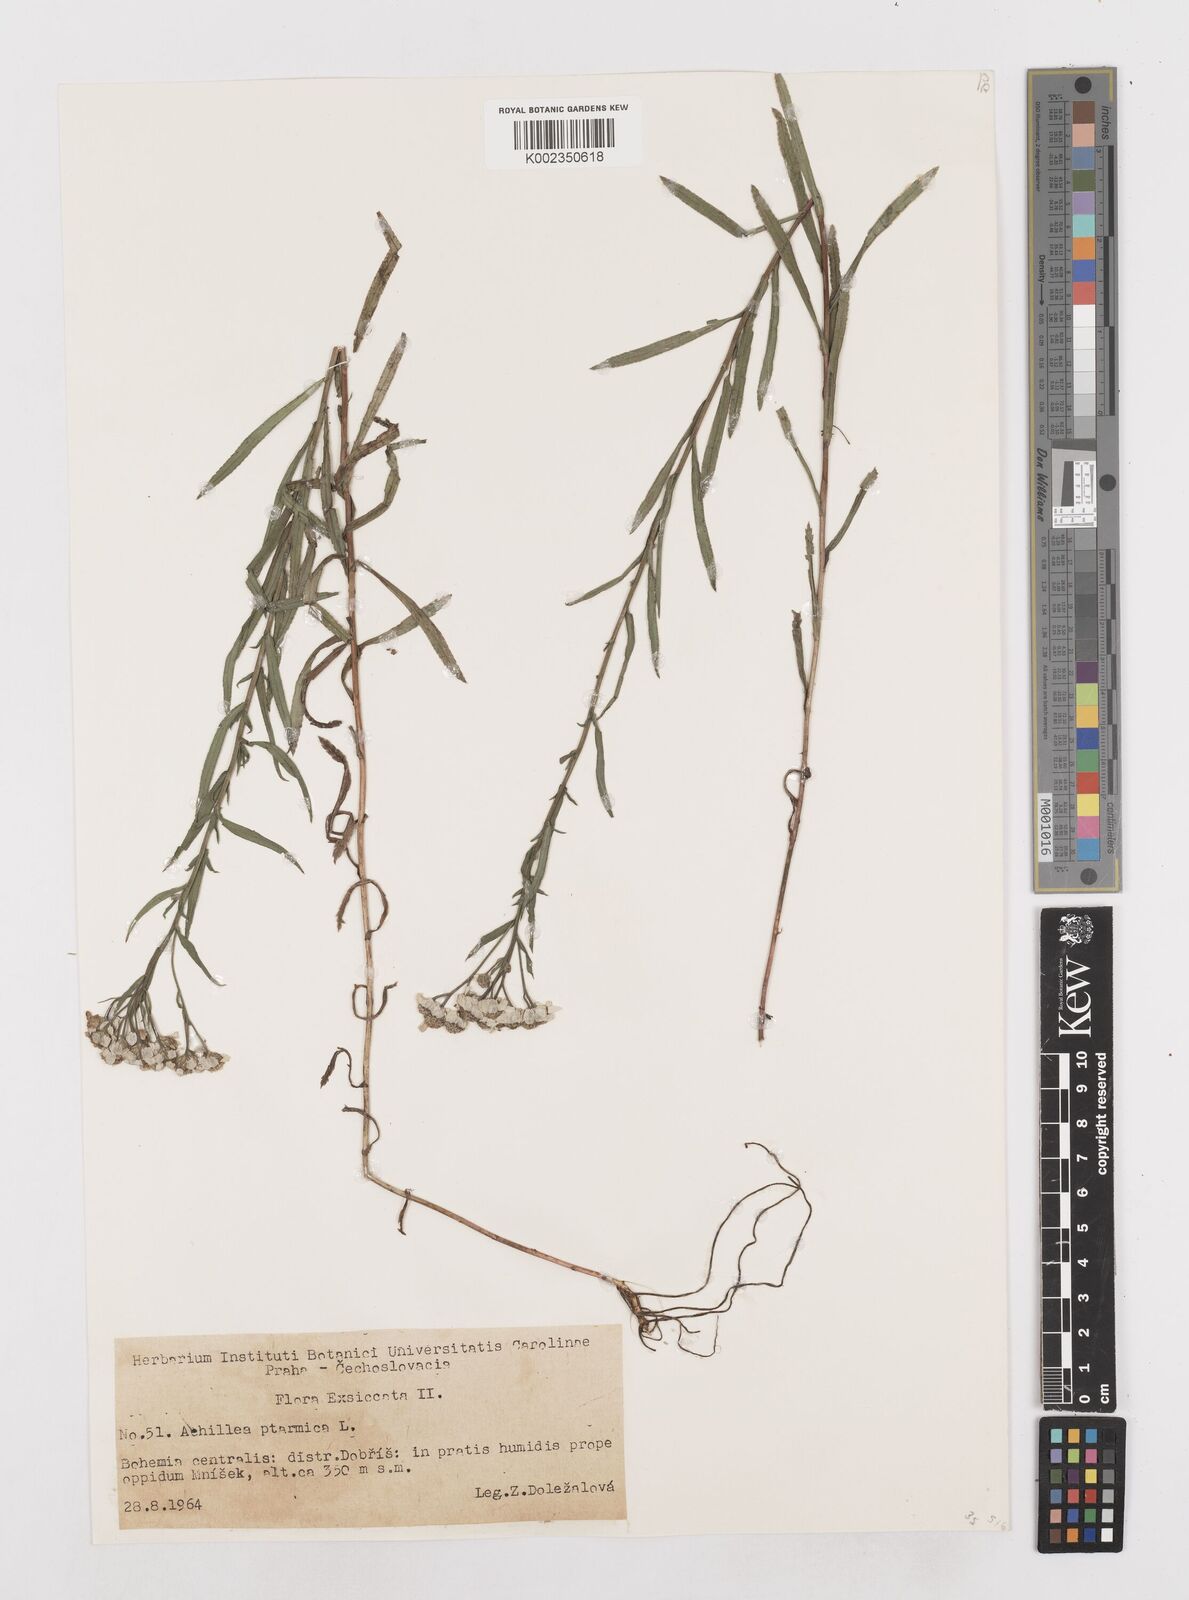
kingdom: Plantae
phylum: Tracheophyta
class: Magnoliopsida
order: Asterales
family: Asteraceae
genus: Achillea
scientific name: Achillea ptarmica
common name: Sneezeweed
